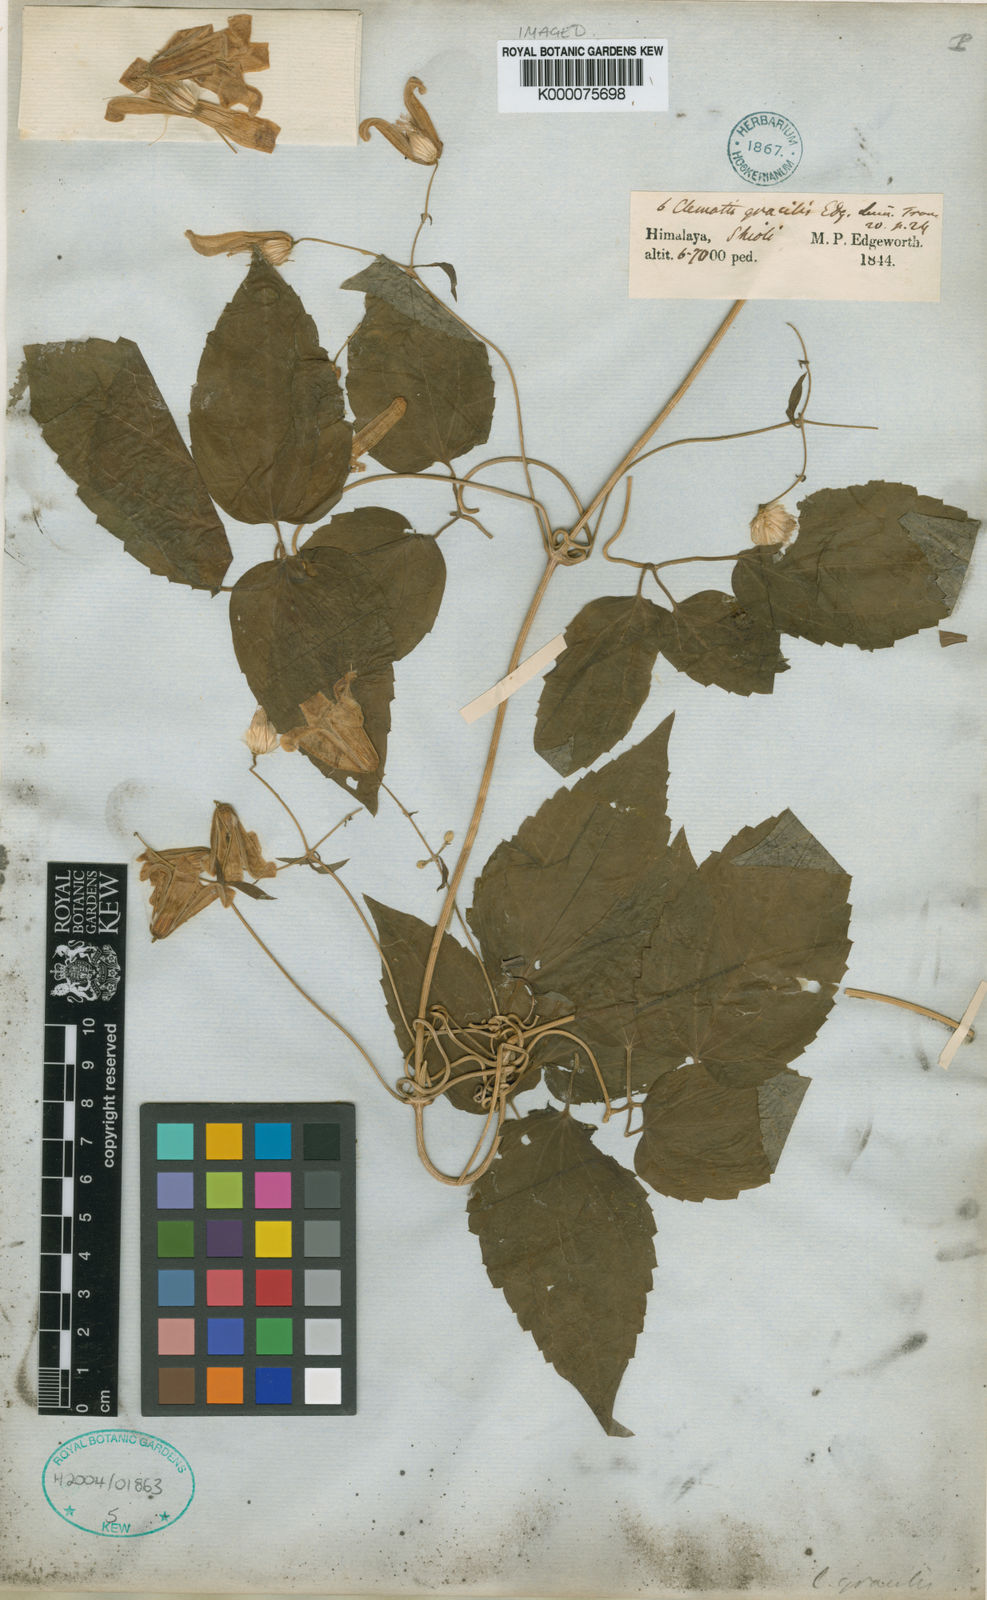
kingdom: Plantae
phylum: Tracheophyta
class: Magnoliopsida
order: Ranunculales
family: Ranunculaceae
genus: Clematis
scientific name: Clematis connata
